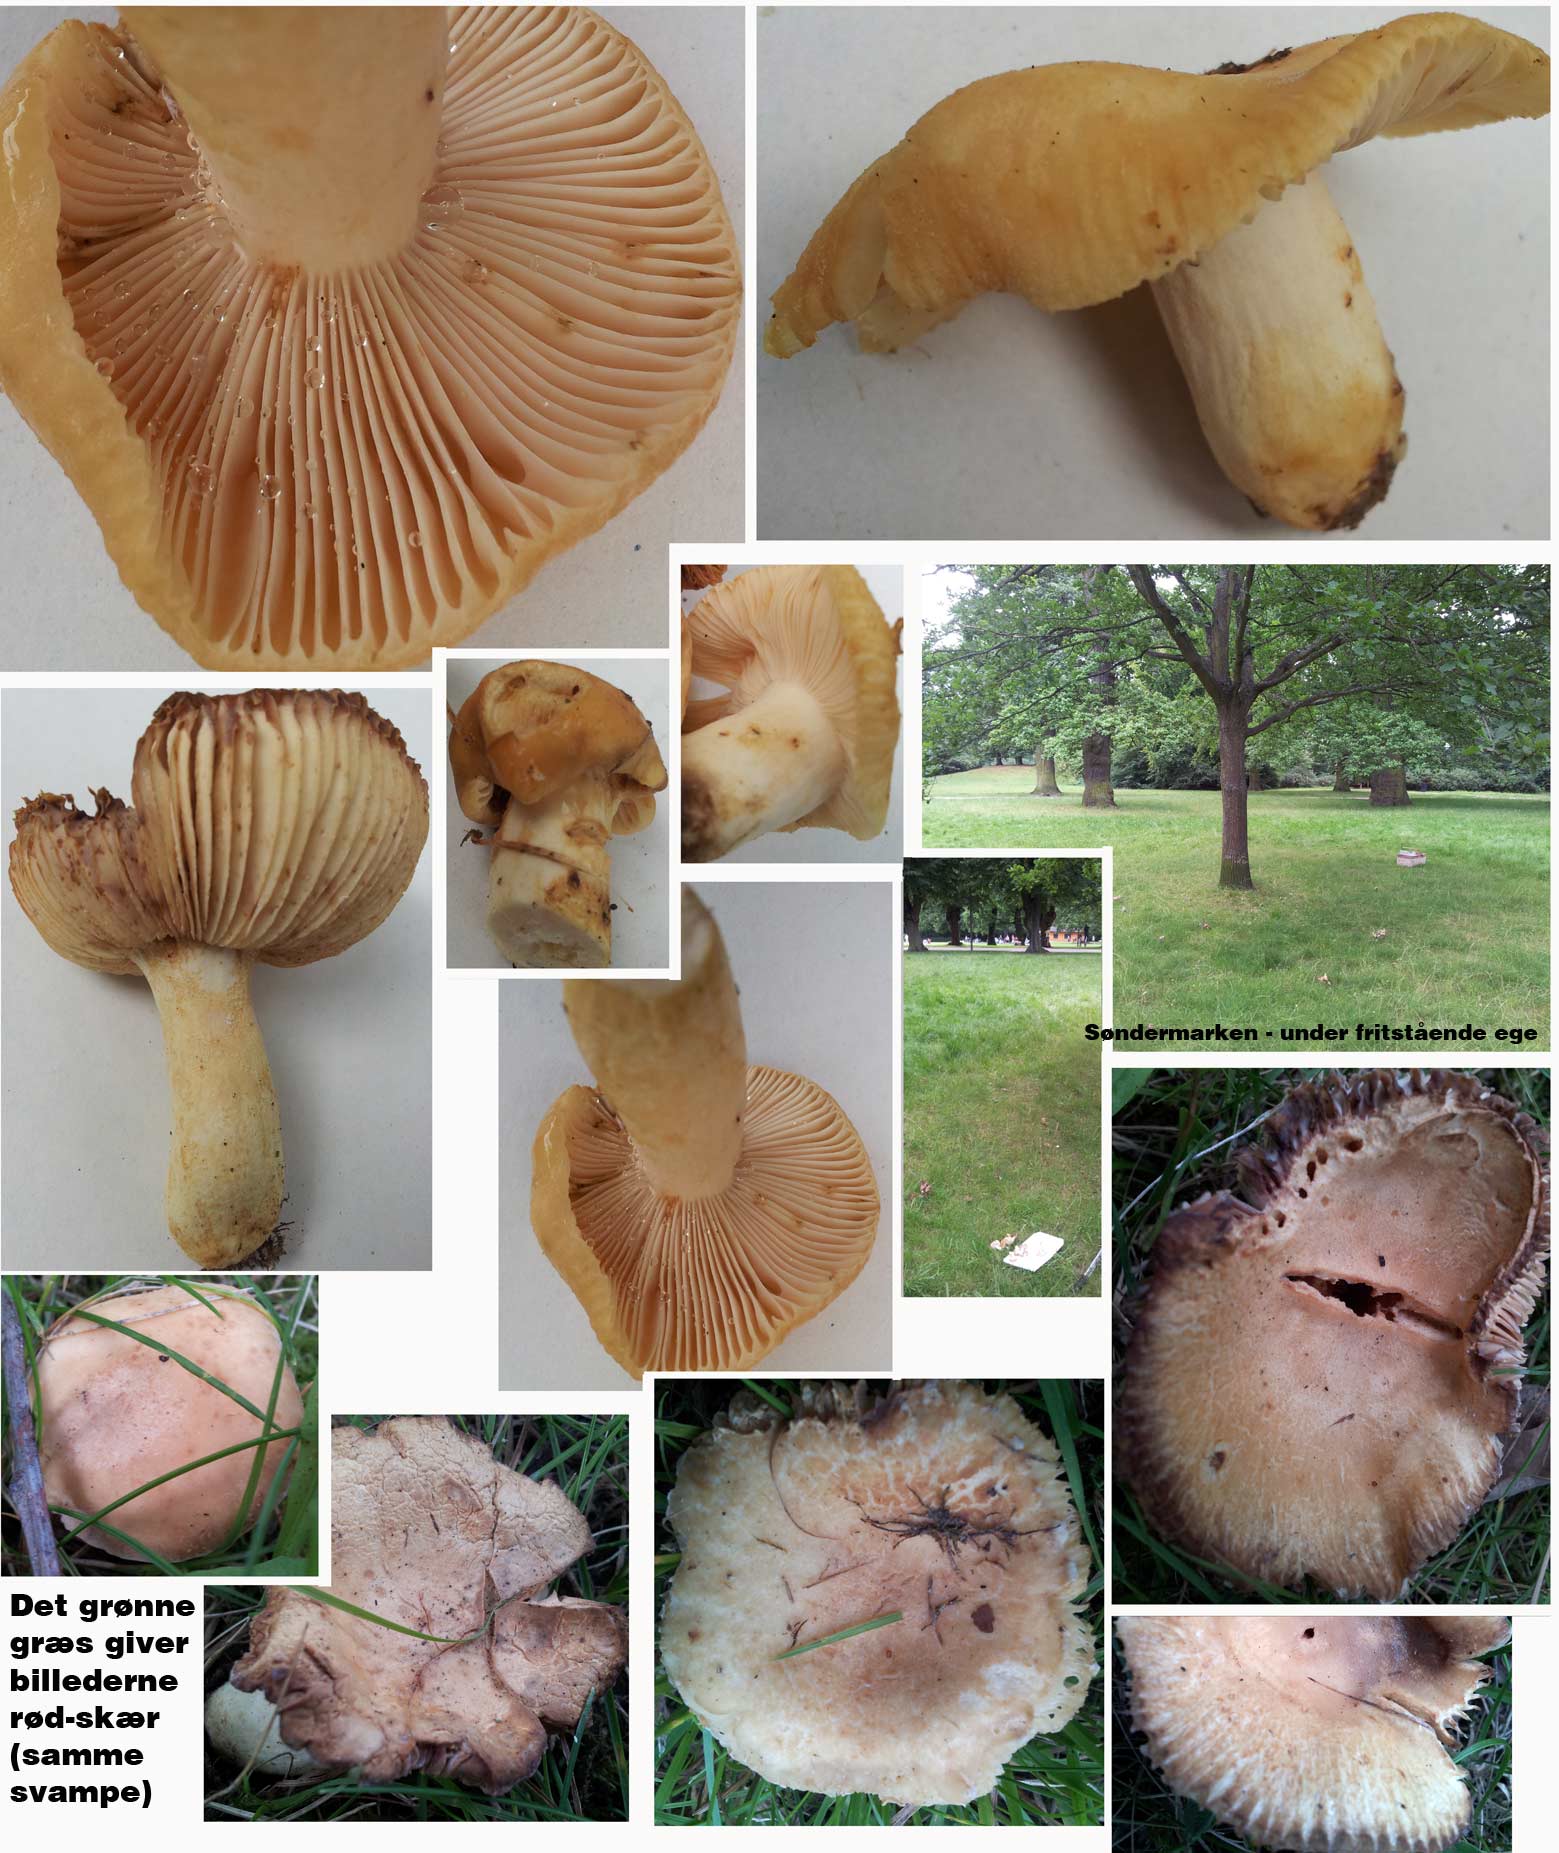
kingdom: Fungi
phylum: Basidiomycota
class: Agaricomycetes
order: Russulales
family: Russulaceae
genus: Russula
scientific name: Russula farinipes
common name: gul kam-skørhat
